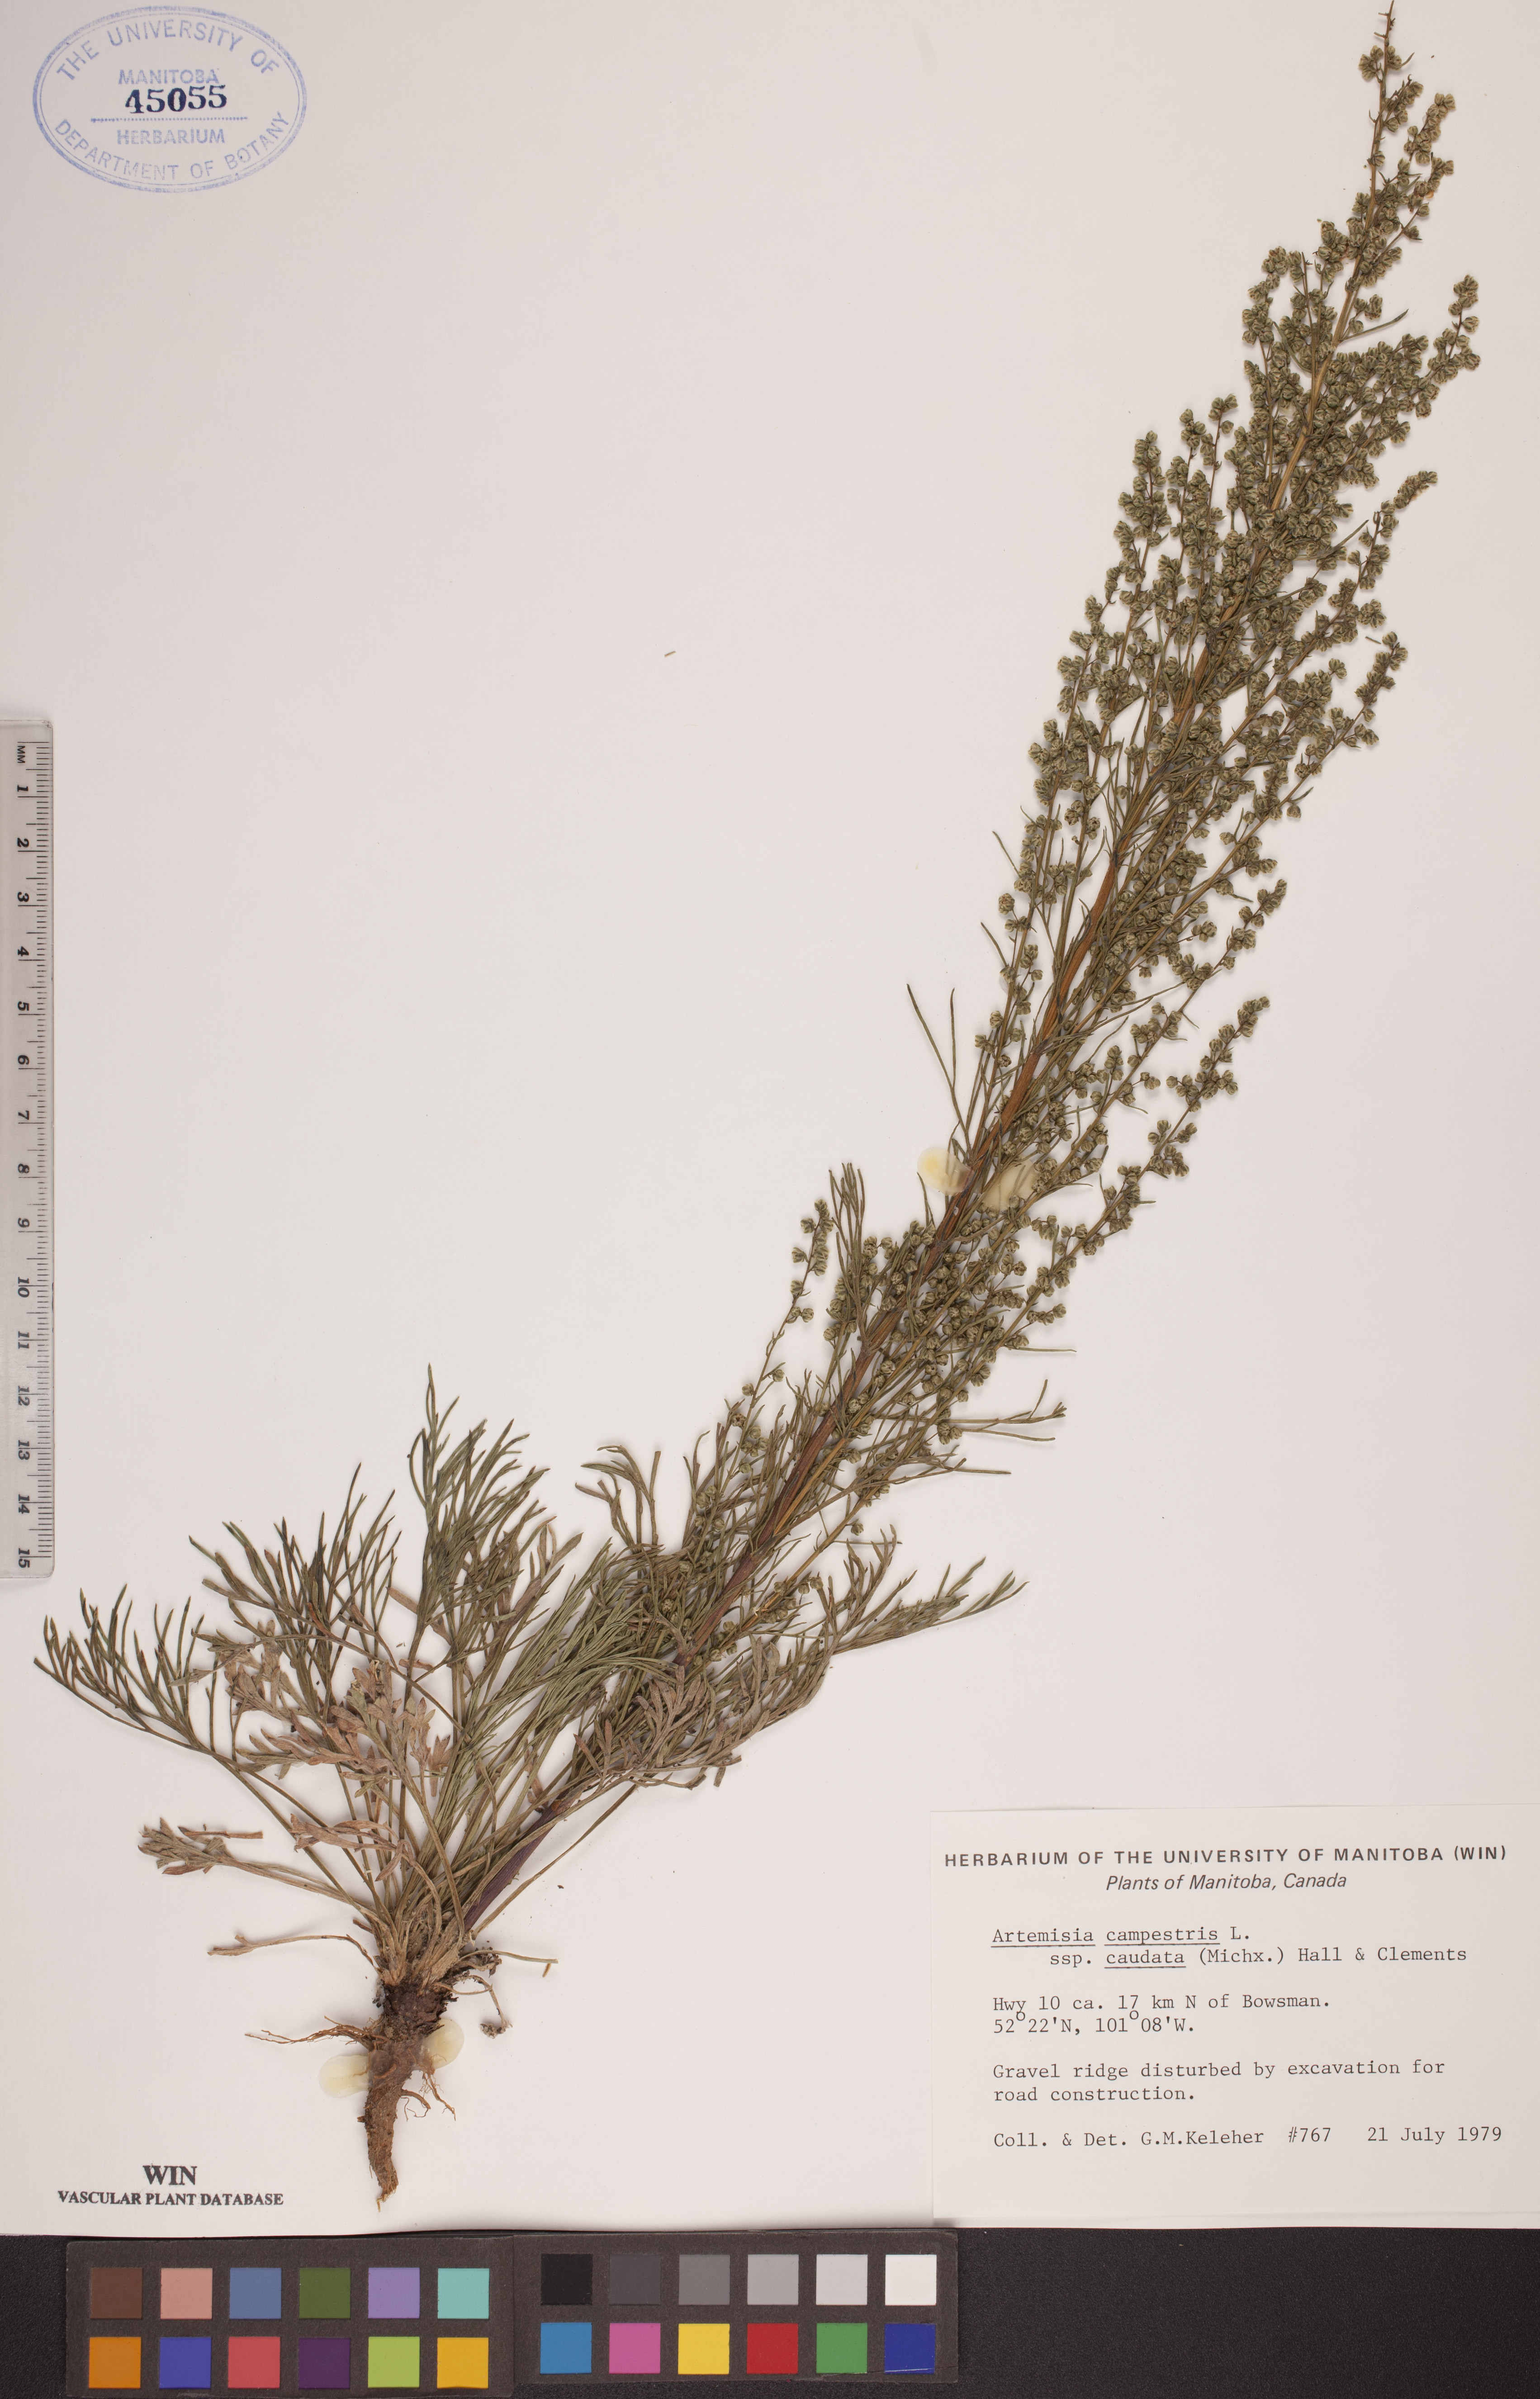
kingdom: Plantae
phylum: Tracheophyta
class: Magnoliopsida
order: Asterales
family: Asteraceae
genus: Artemisia
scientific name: Artemisia campestris
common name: Field wormwood
